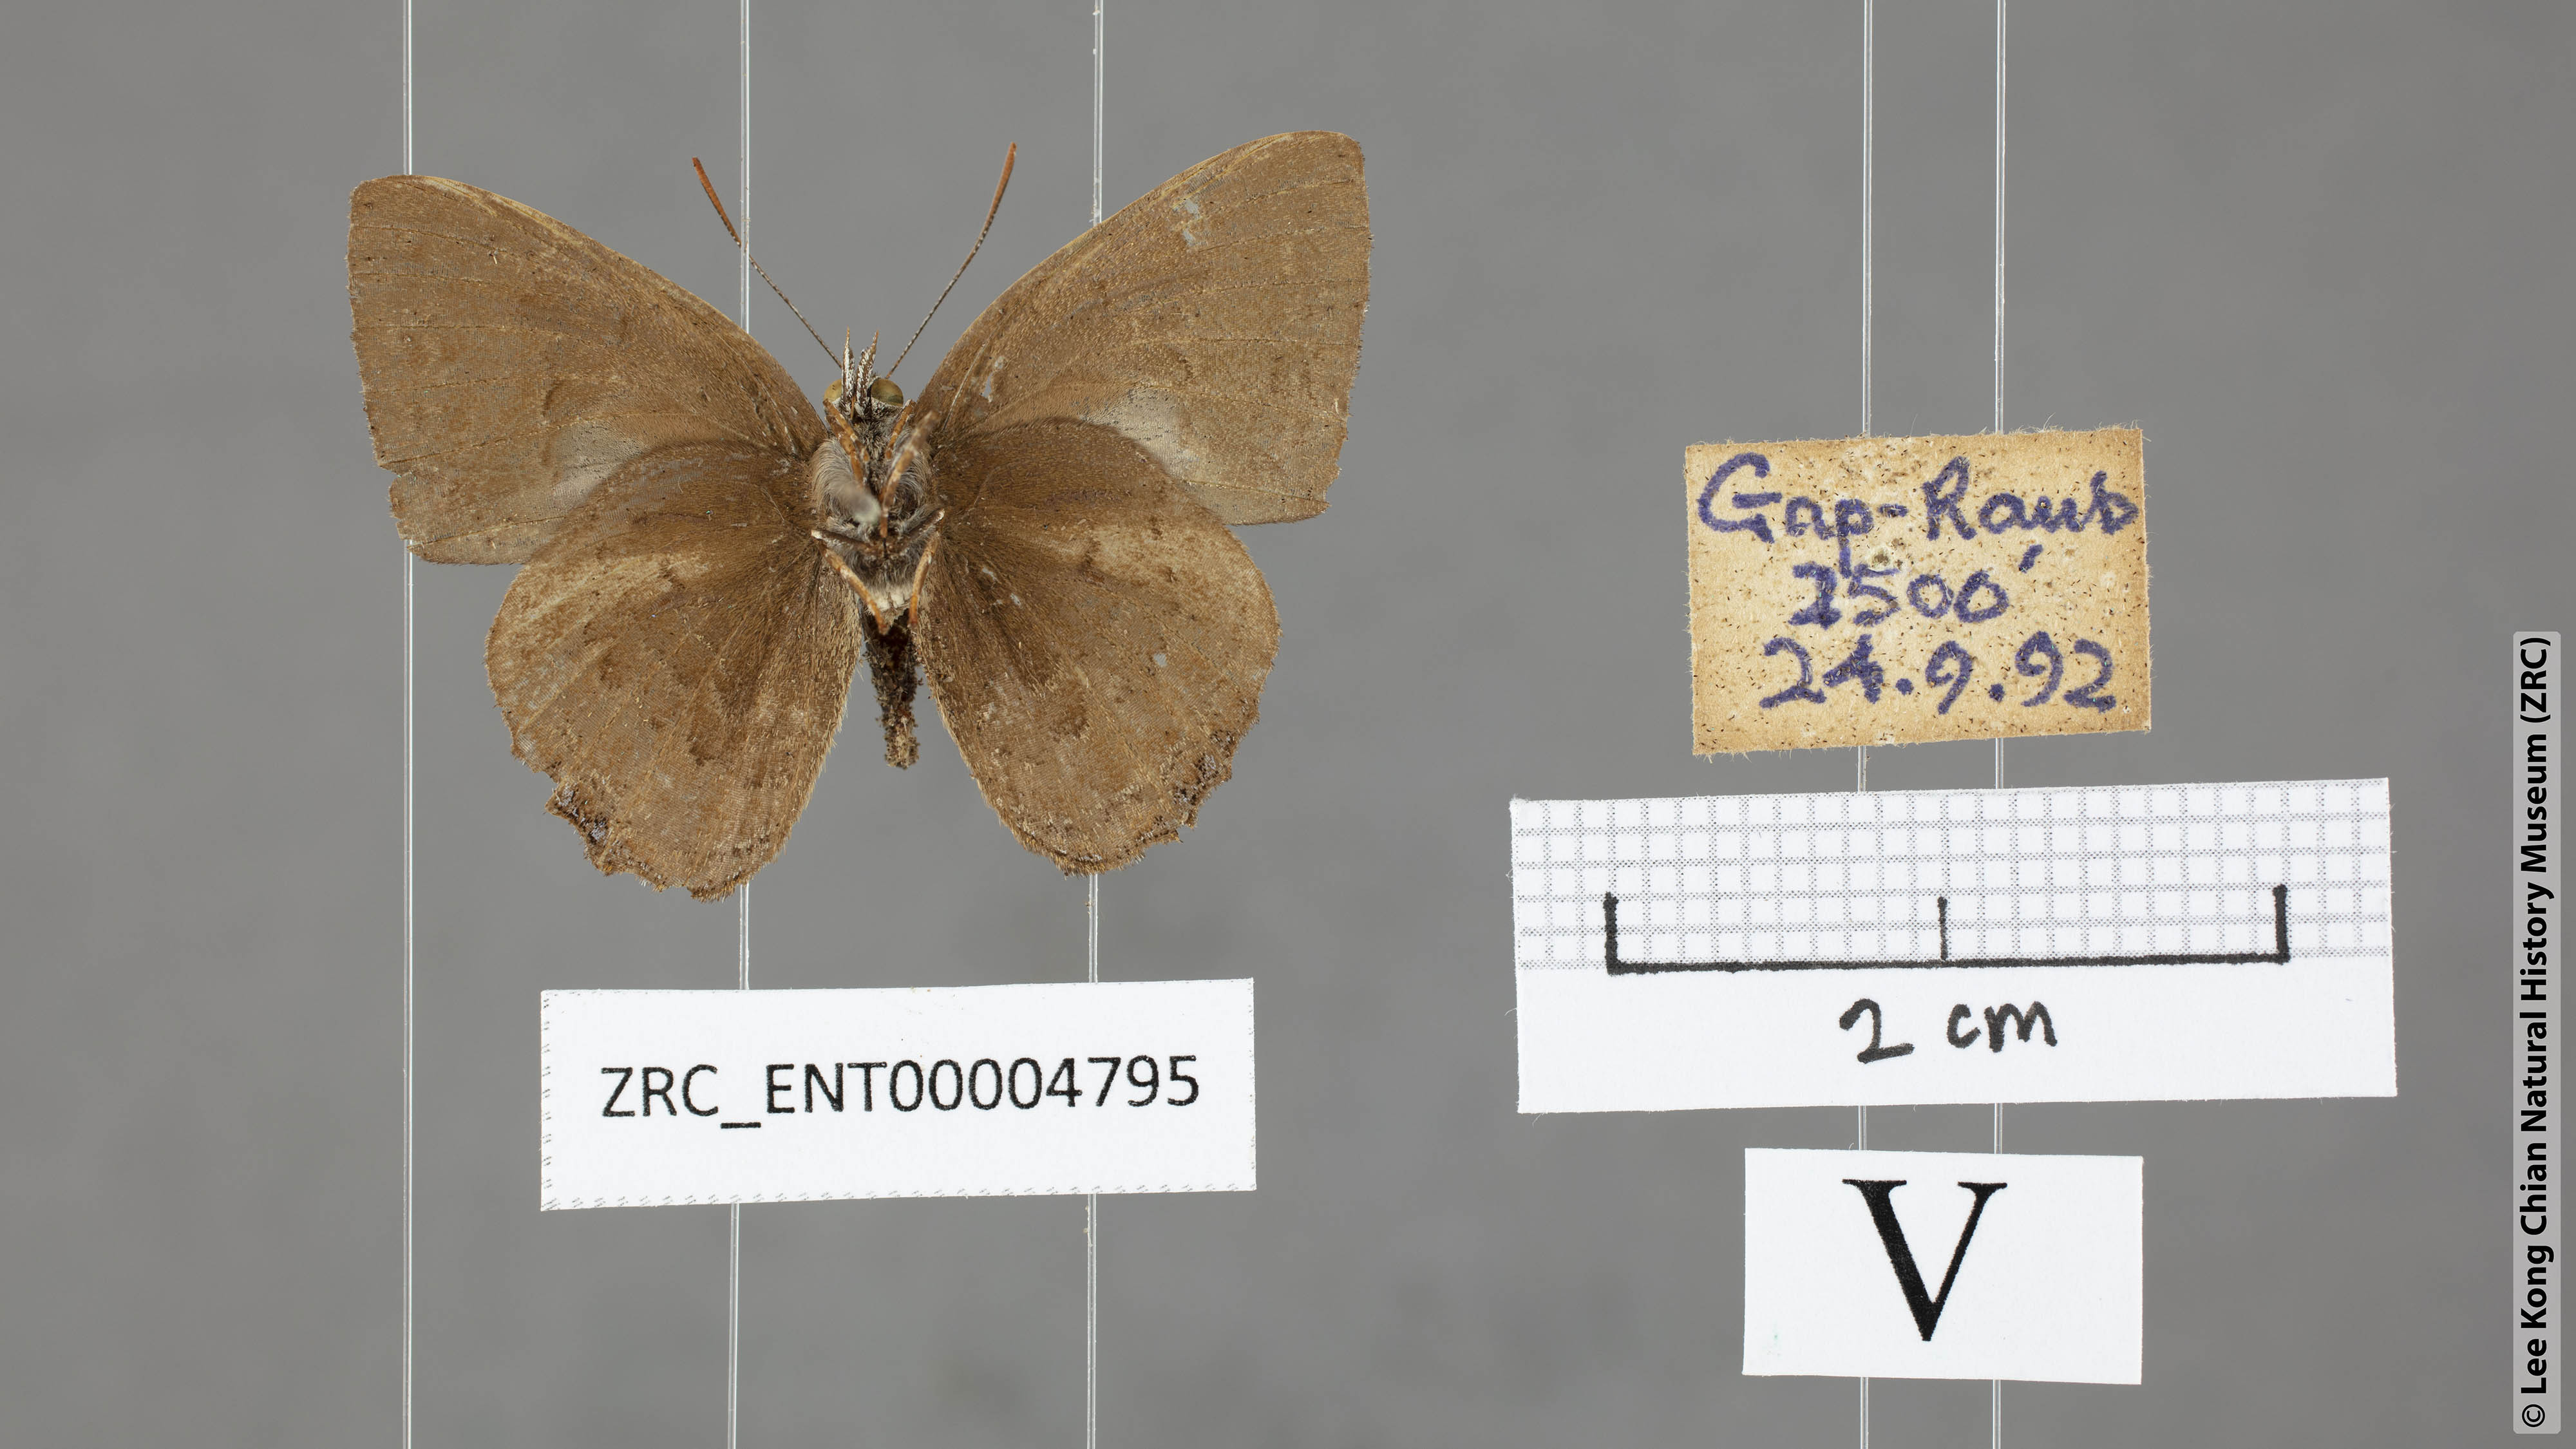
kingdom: Animalia
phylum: Arthropoda
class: Insecta
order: Lepidoptera
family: Lycaenidae
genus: Poritia
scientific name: Poritia proxina
